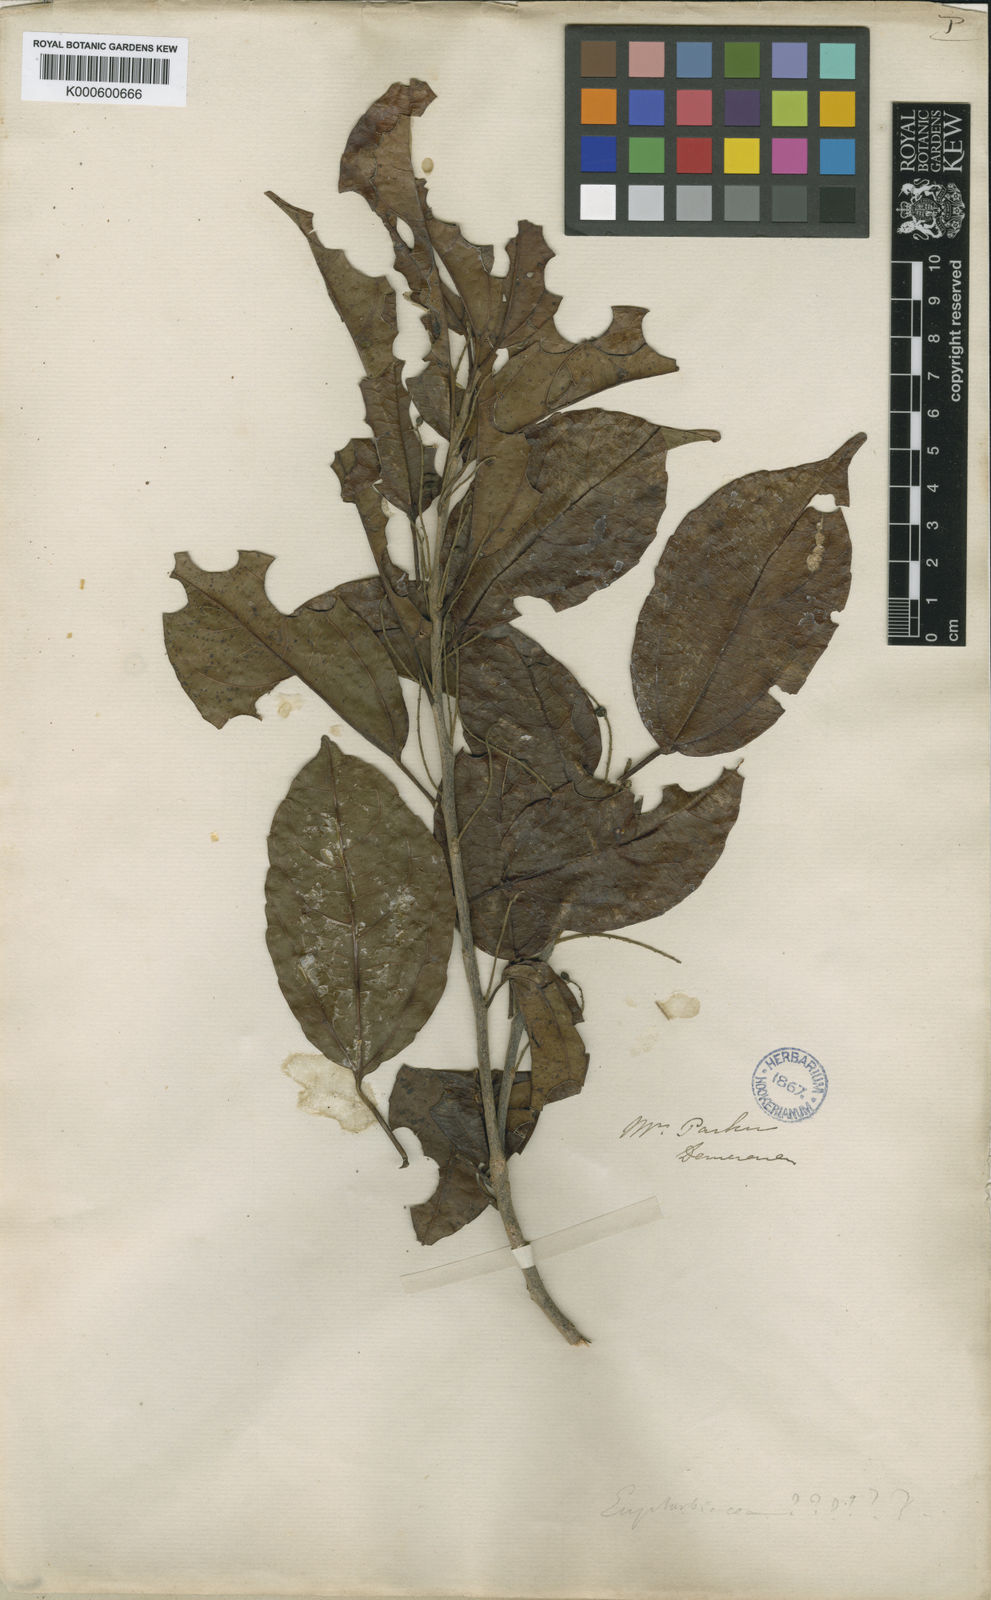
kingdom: Plantae
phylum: Tracheophyta
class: Magnoliopsida
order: Malpighiales
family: Euphorbiaceae
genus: Alchorneopsis
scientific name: Alchorneopsis
